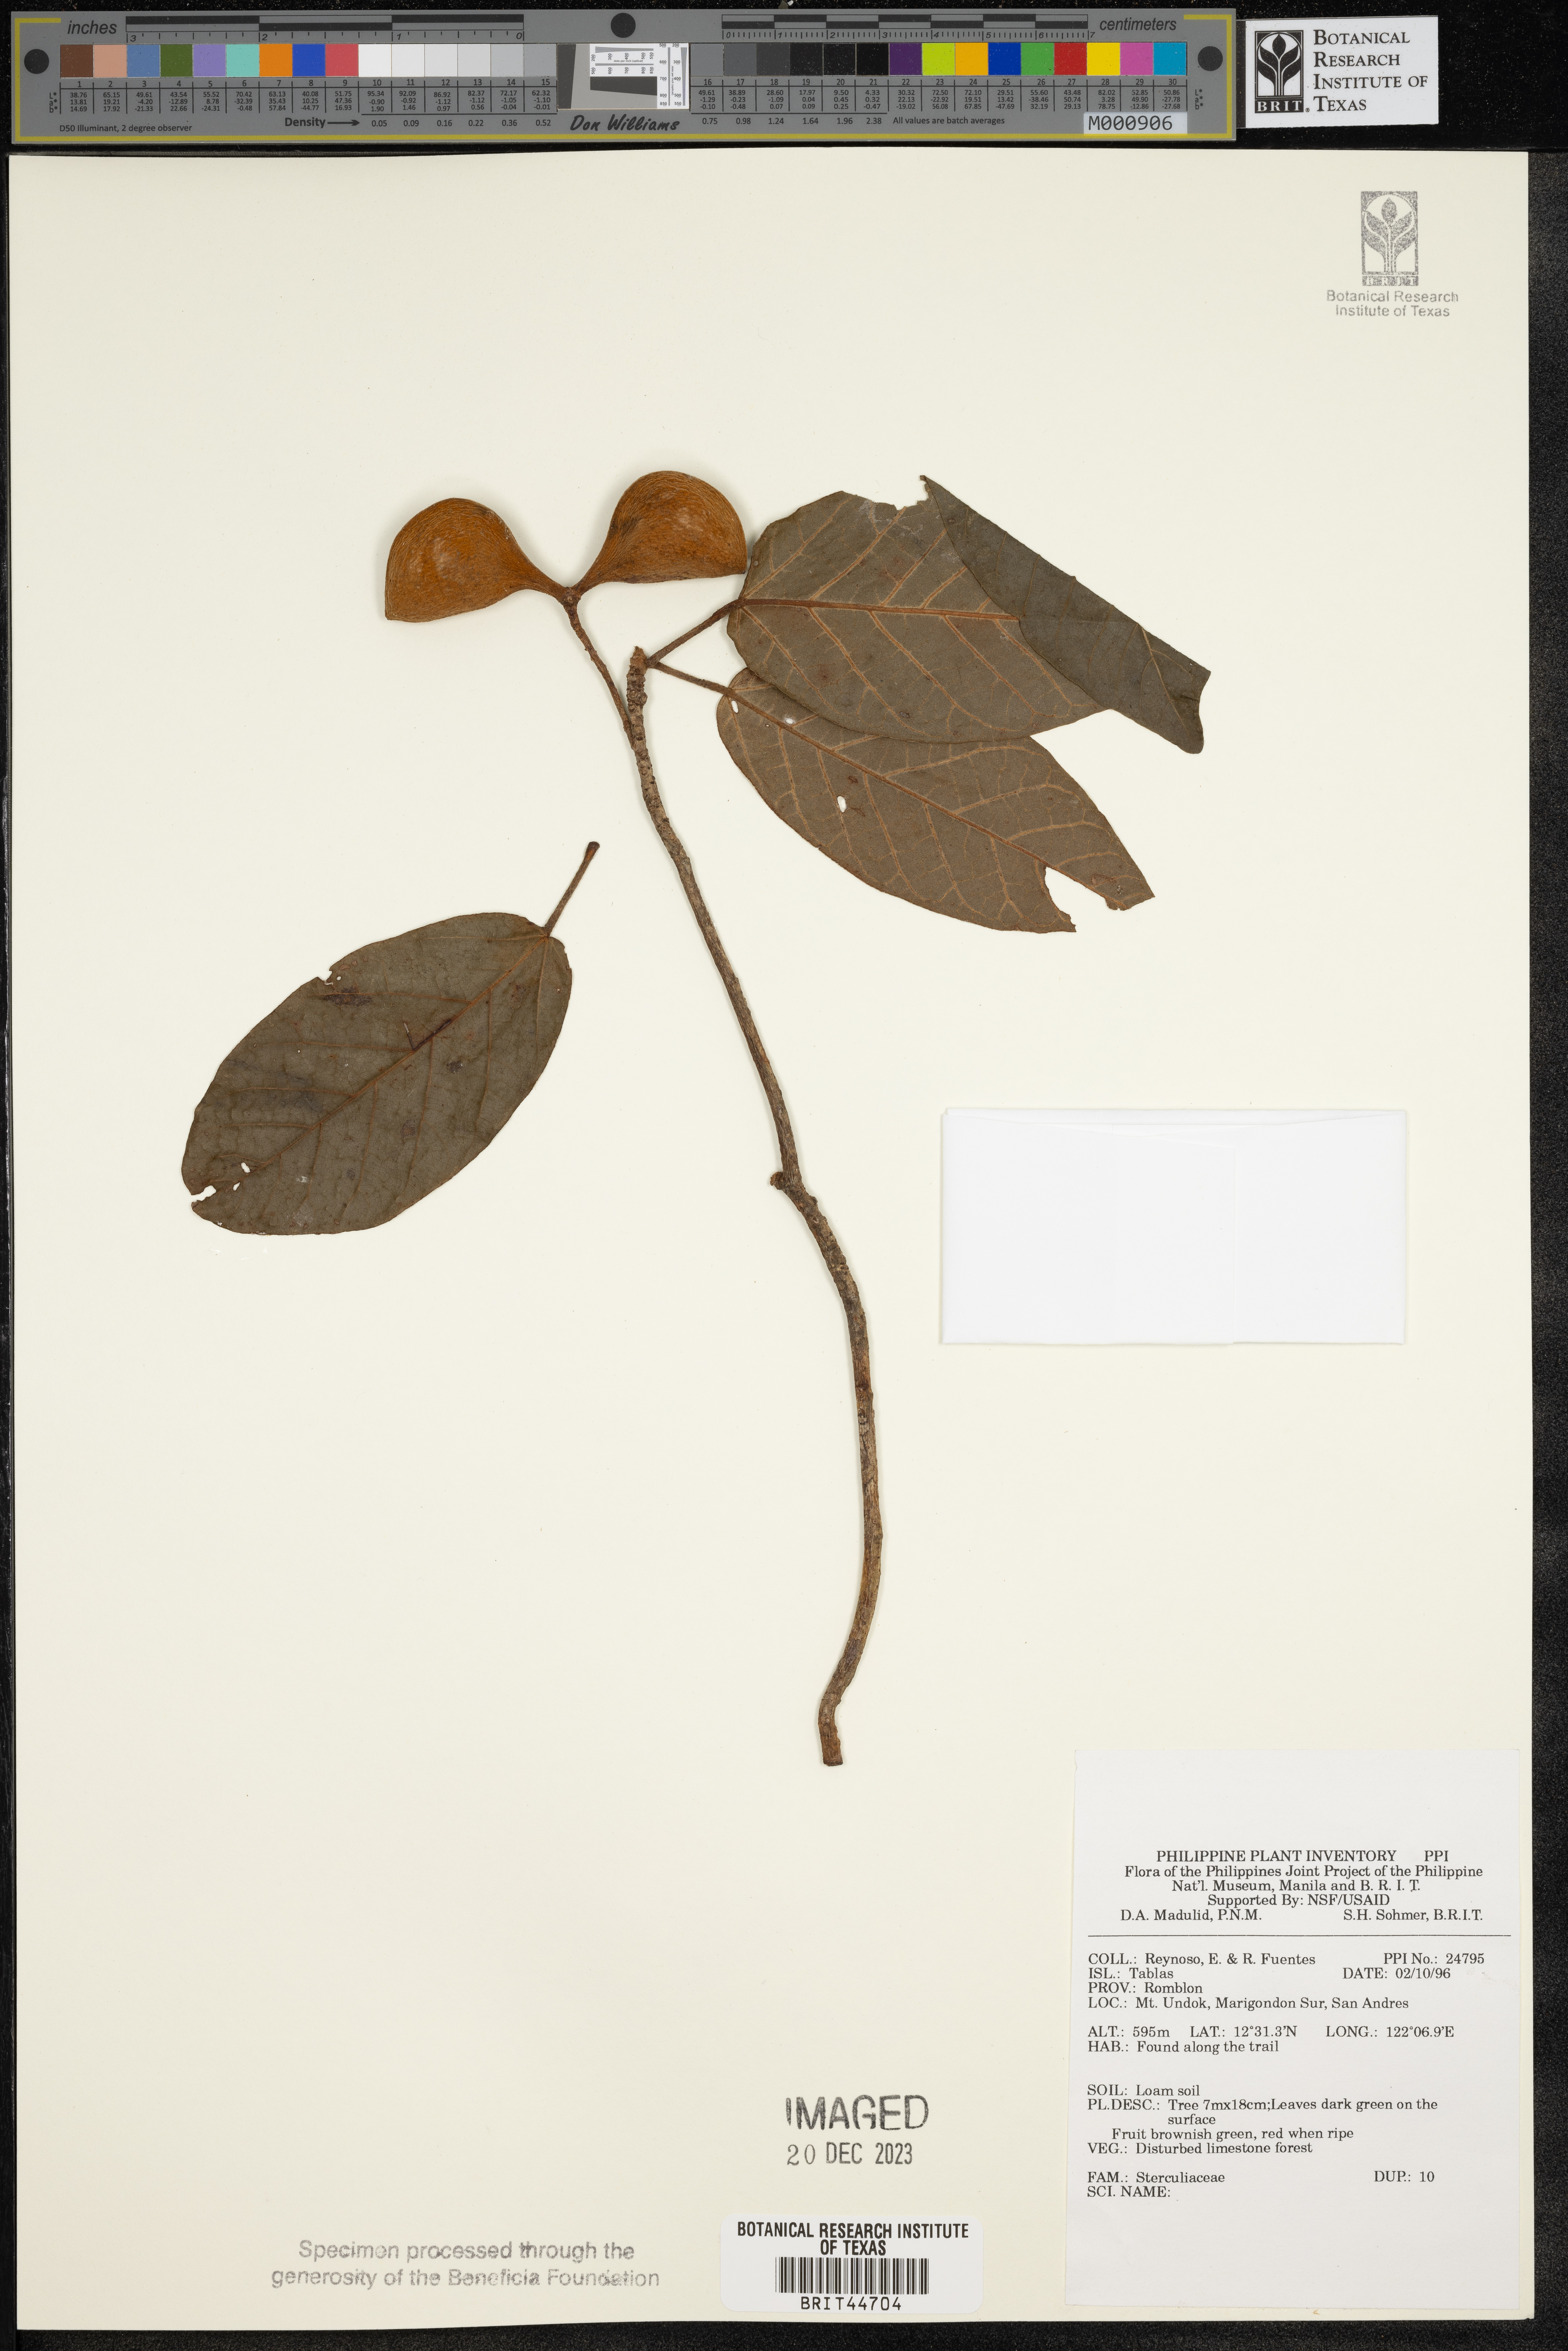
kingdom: Plantae
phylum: Tracheophyta
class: Magnoliopsida
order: Malvales
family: Sterculiaceae
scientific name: Sterculiaceae
